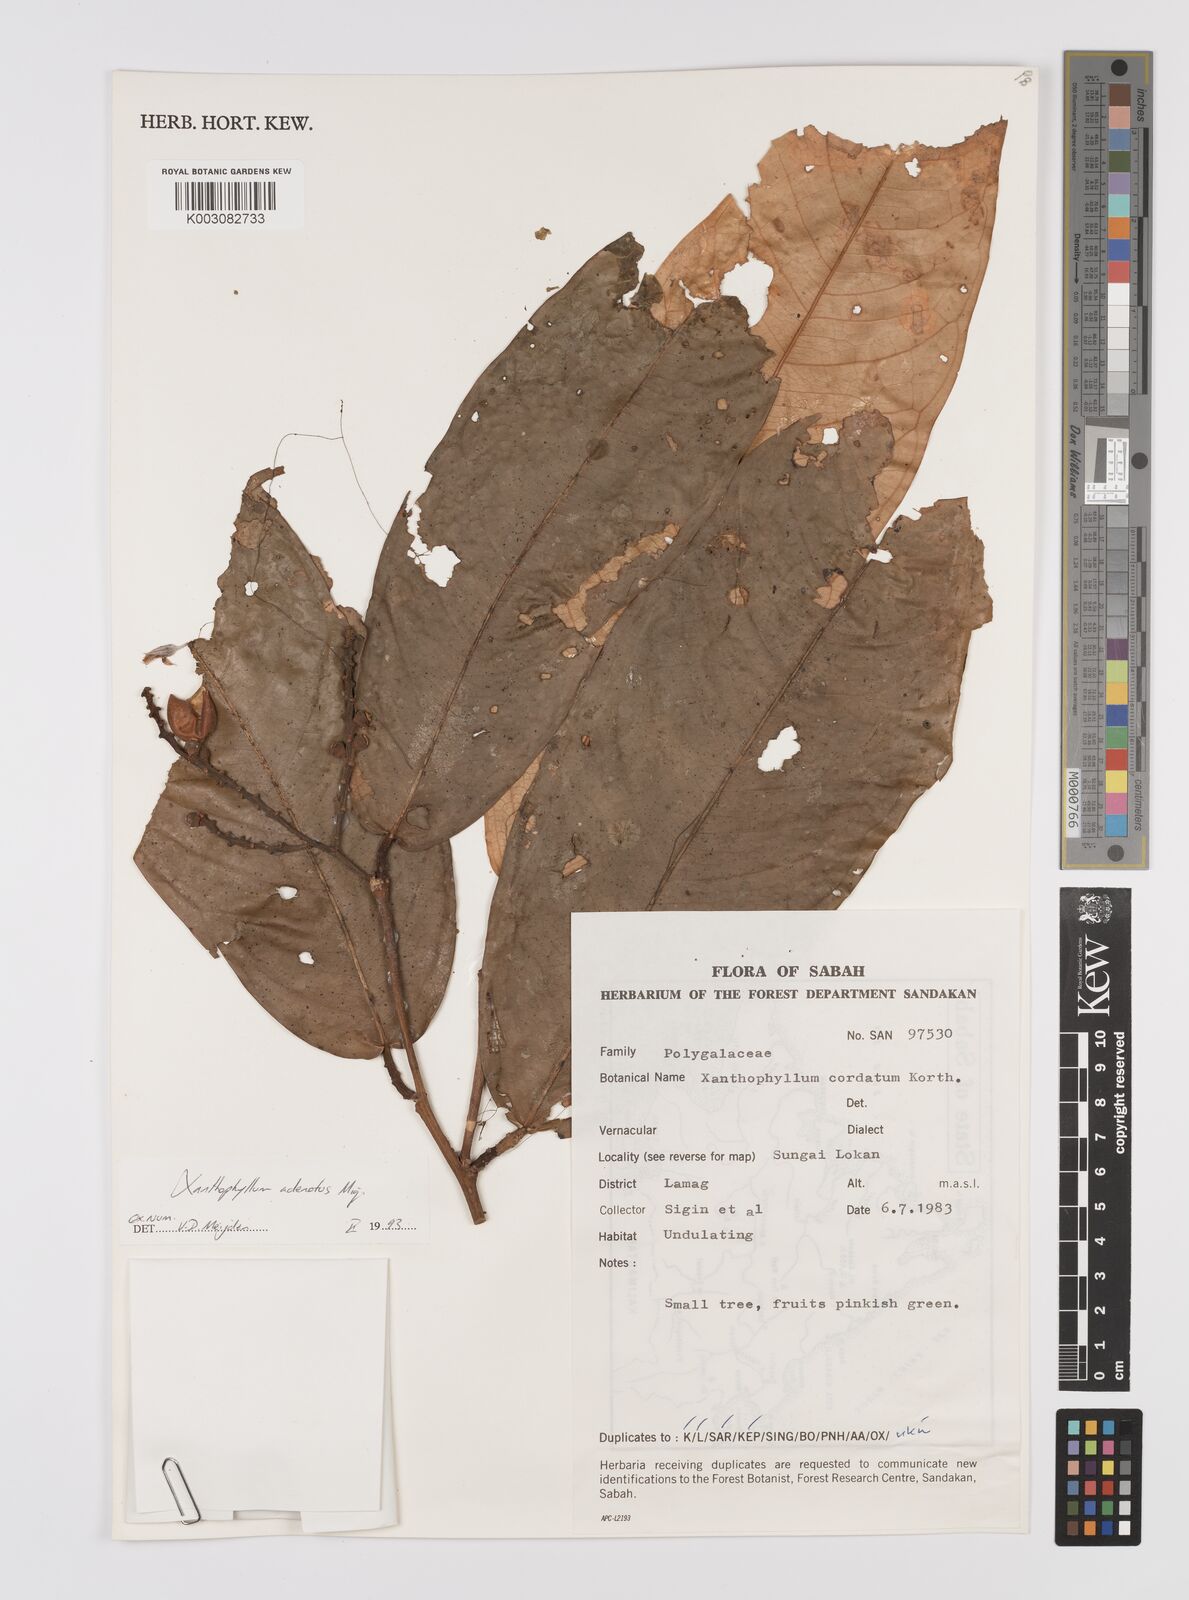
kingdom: Plantae
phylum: Tracheophyta
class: Magnoliopsida
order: Fabales
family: Polygalaceae
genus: Xanthophyllum
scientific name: Xanthophyllum adenotus
